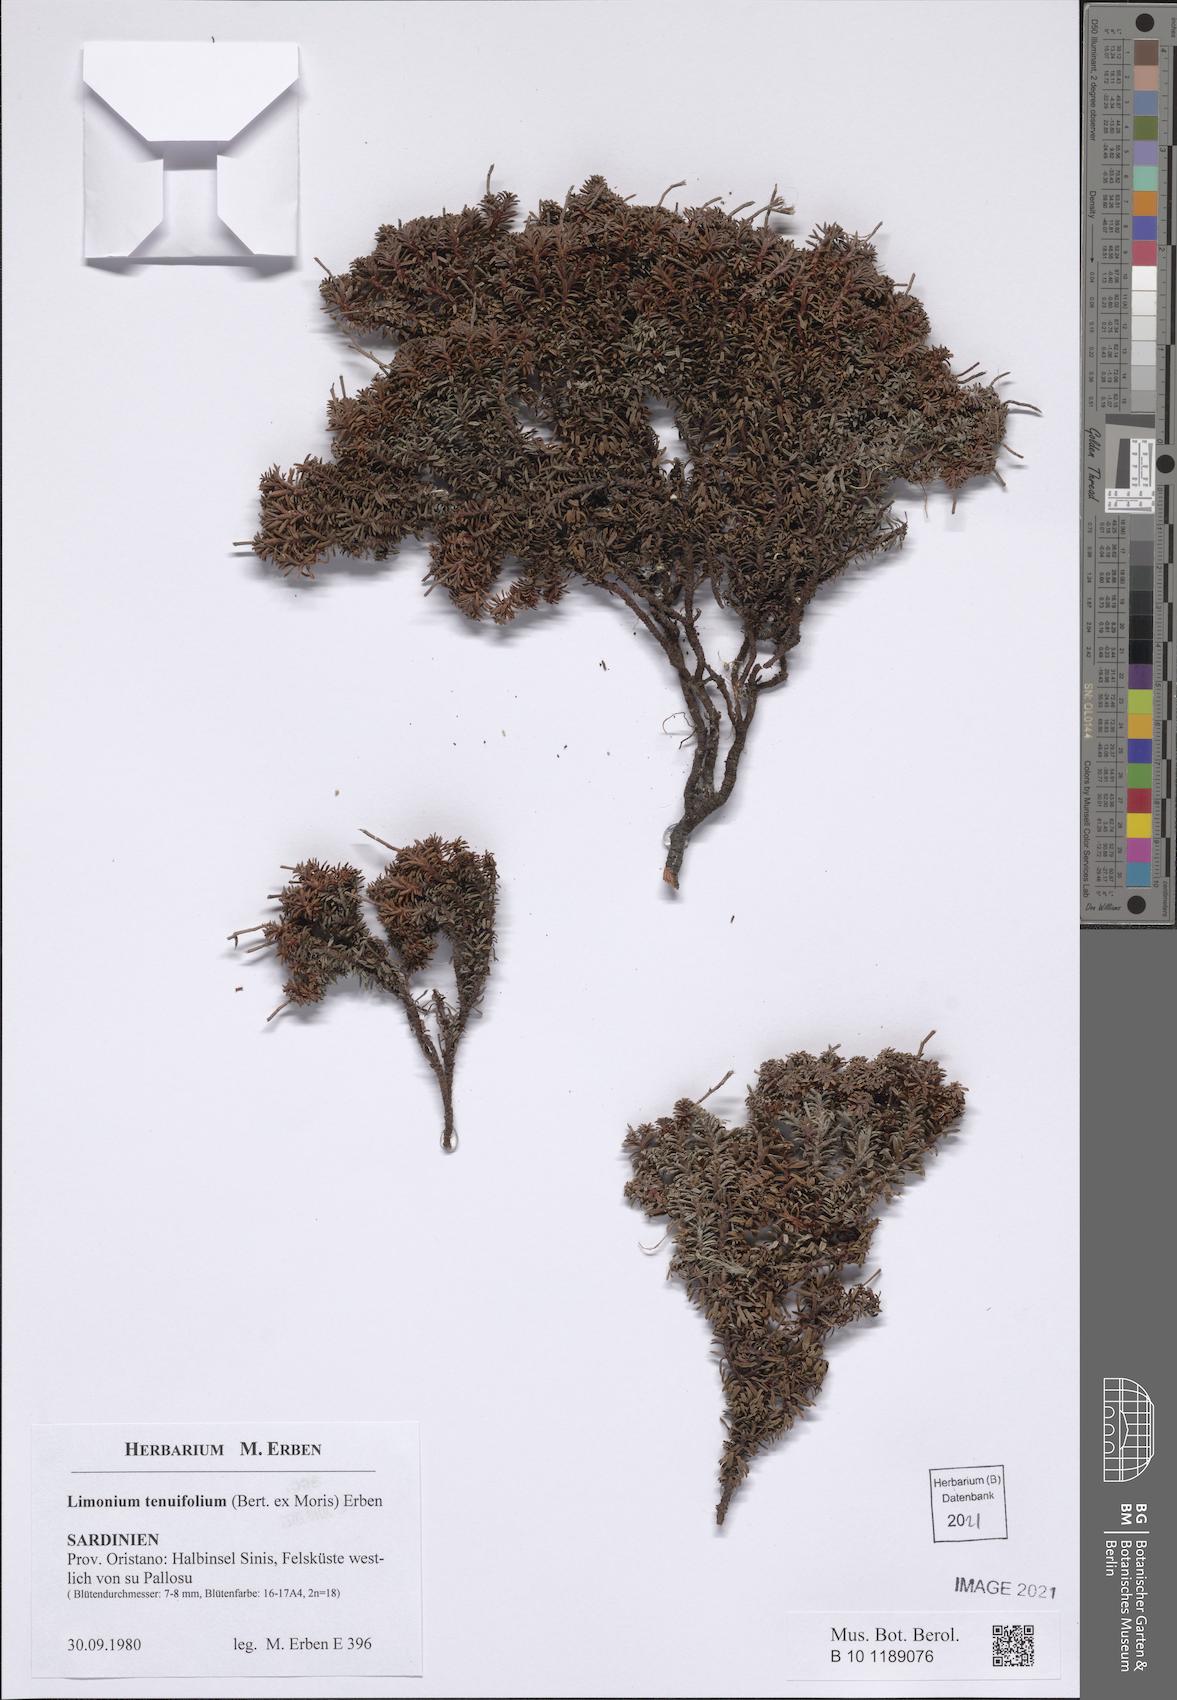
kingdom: Plantae
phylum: Tracheophyta
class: Magnoliopsida
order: Caryophyllales
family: Plumbaginaceae
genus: Limonium
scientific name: Limonium acutifolium
